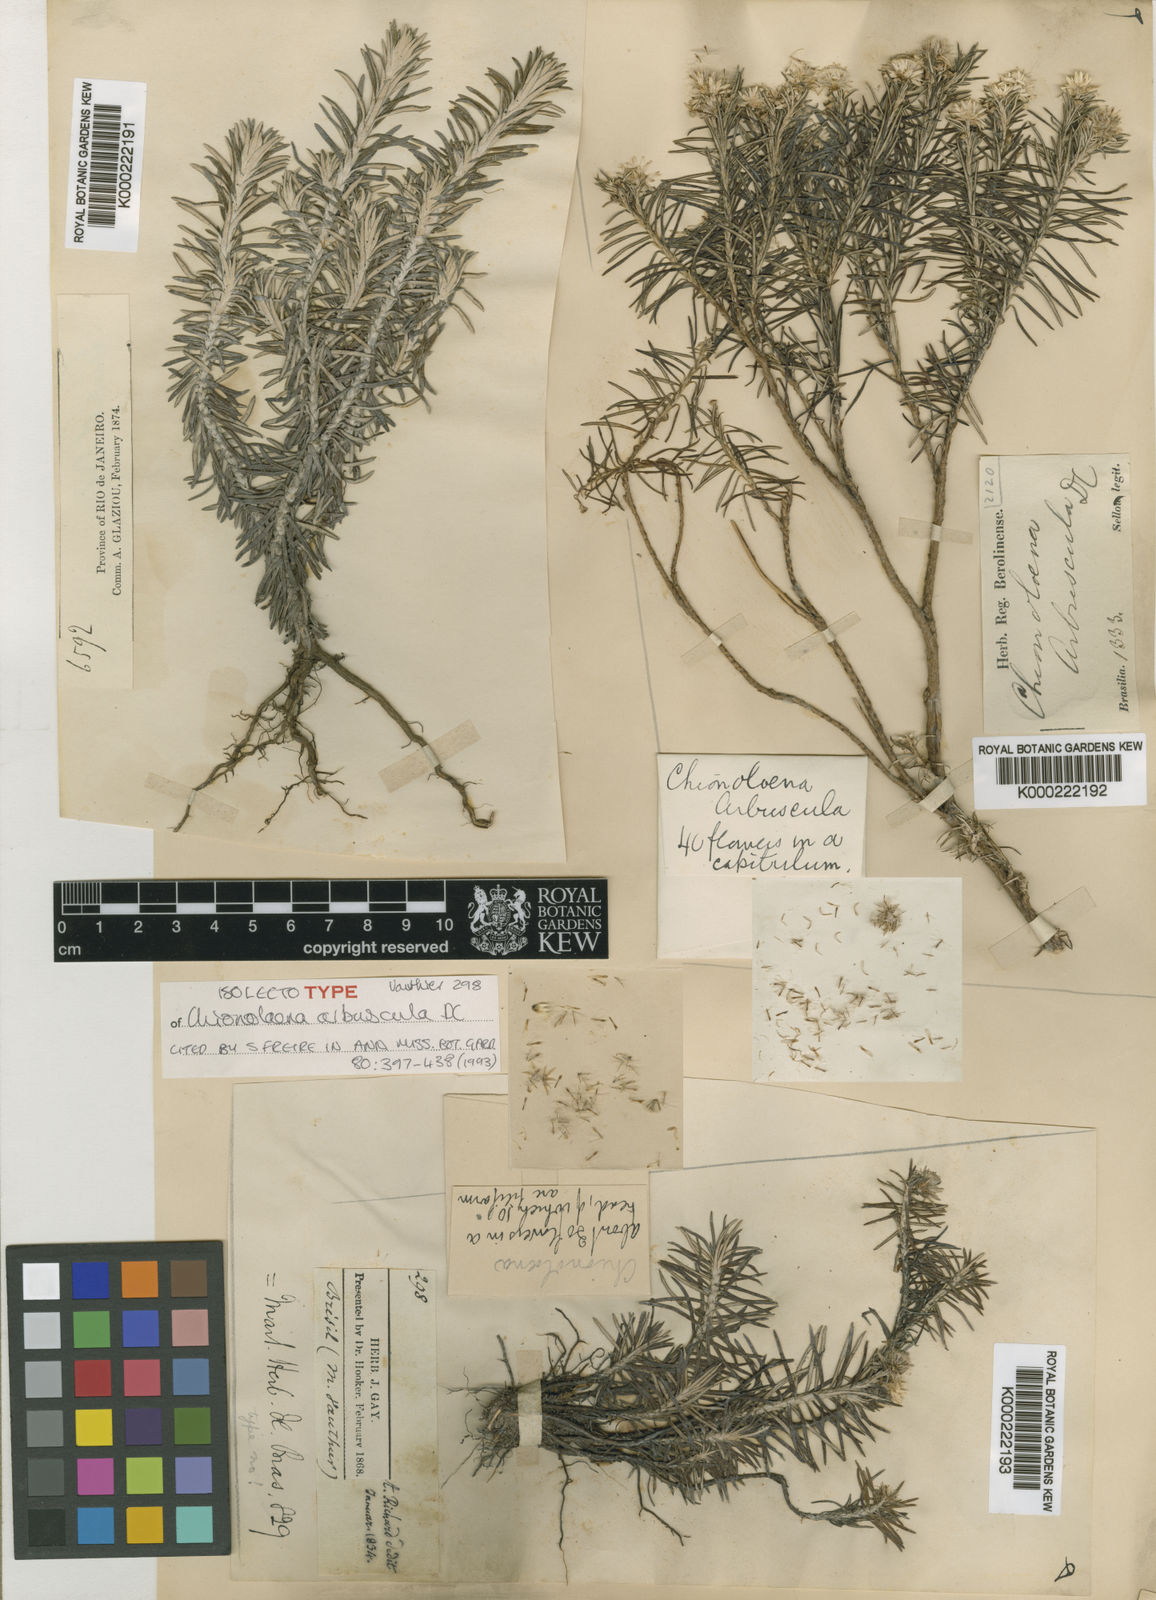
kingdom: Plantae
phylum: Tracheophyta
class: Magnoliopsida
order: Asterales
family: Asteraceae
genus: Chionolaena
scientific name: Chionolaena arbuscula
